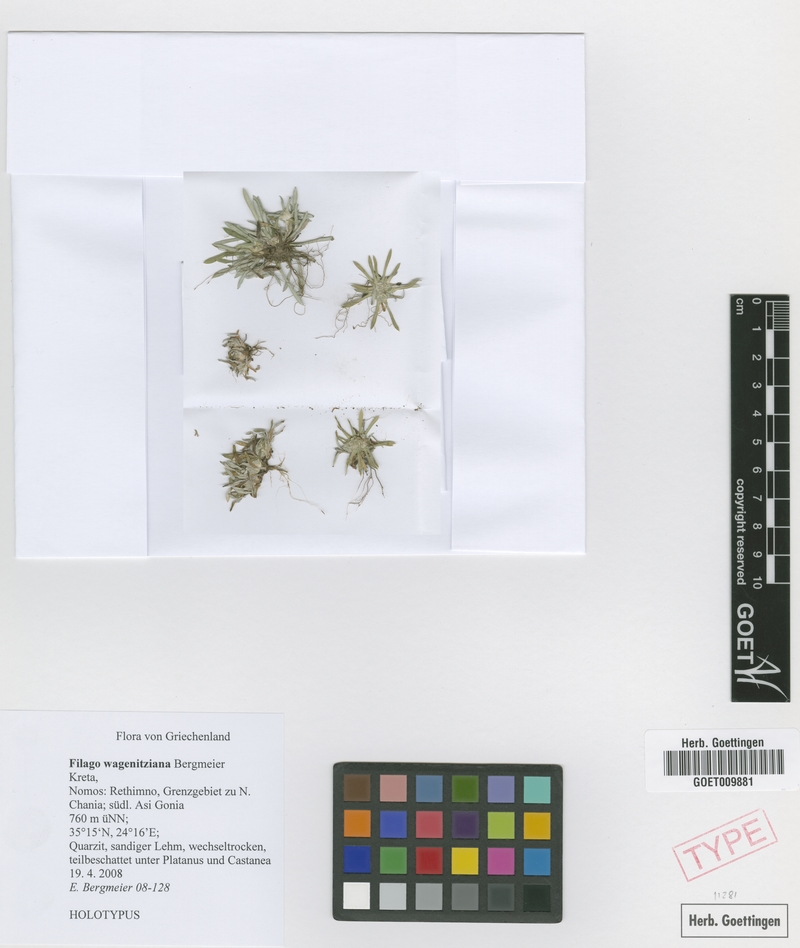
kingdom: Plantae
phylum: Tracheophyta
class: Magnoliopsida
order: Asterales
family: Asteraceae
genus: Filago
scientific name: Filago wagenitziana
